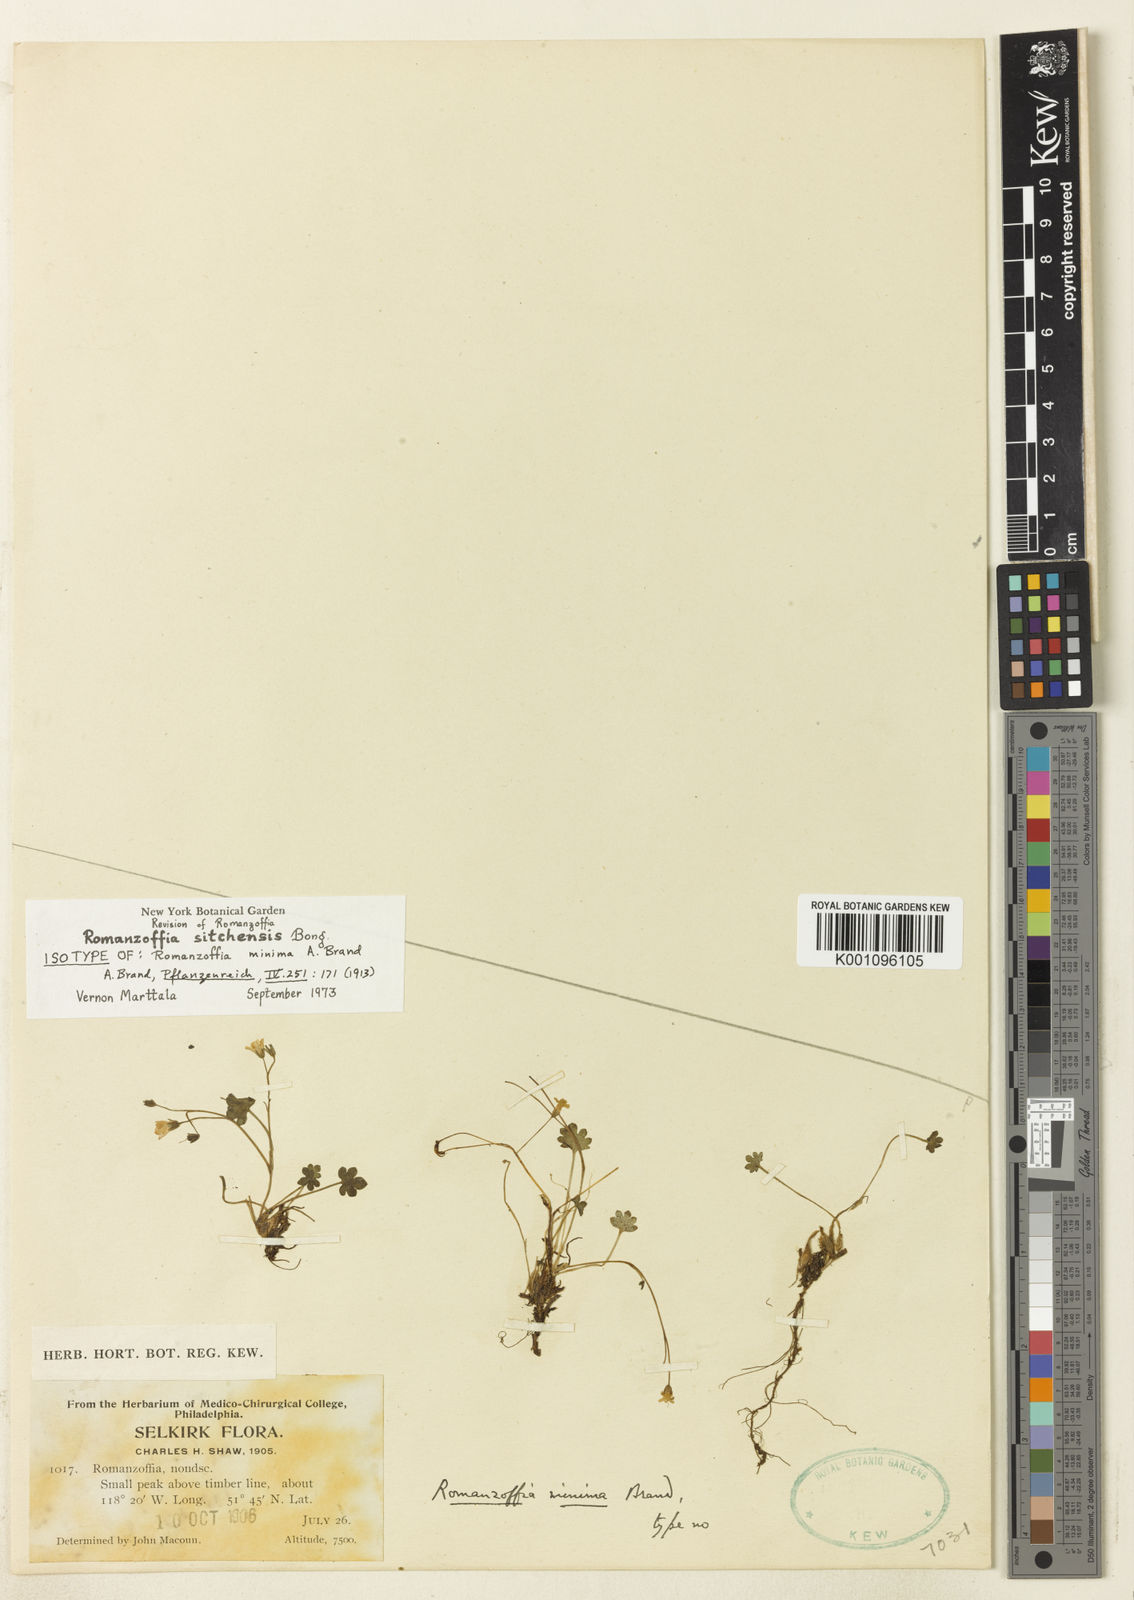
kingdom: Plantae
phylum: Tracheophyta
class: Magnoliopsida
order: Boraginales
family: Hydrophyllaceae
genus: Romanzoffia
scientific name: Romanzoffia sitchensis
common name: Sitka mistmaid
